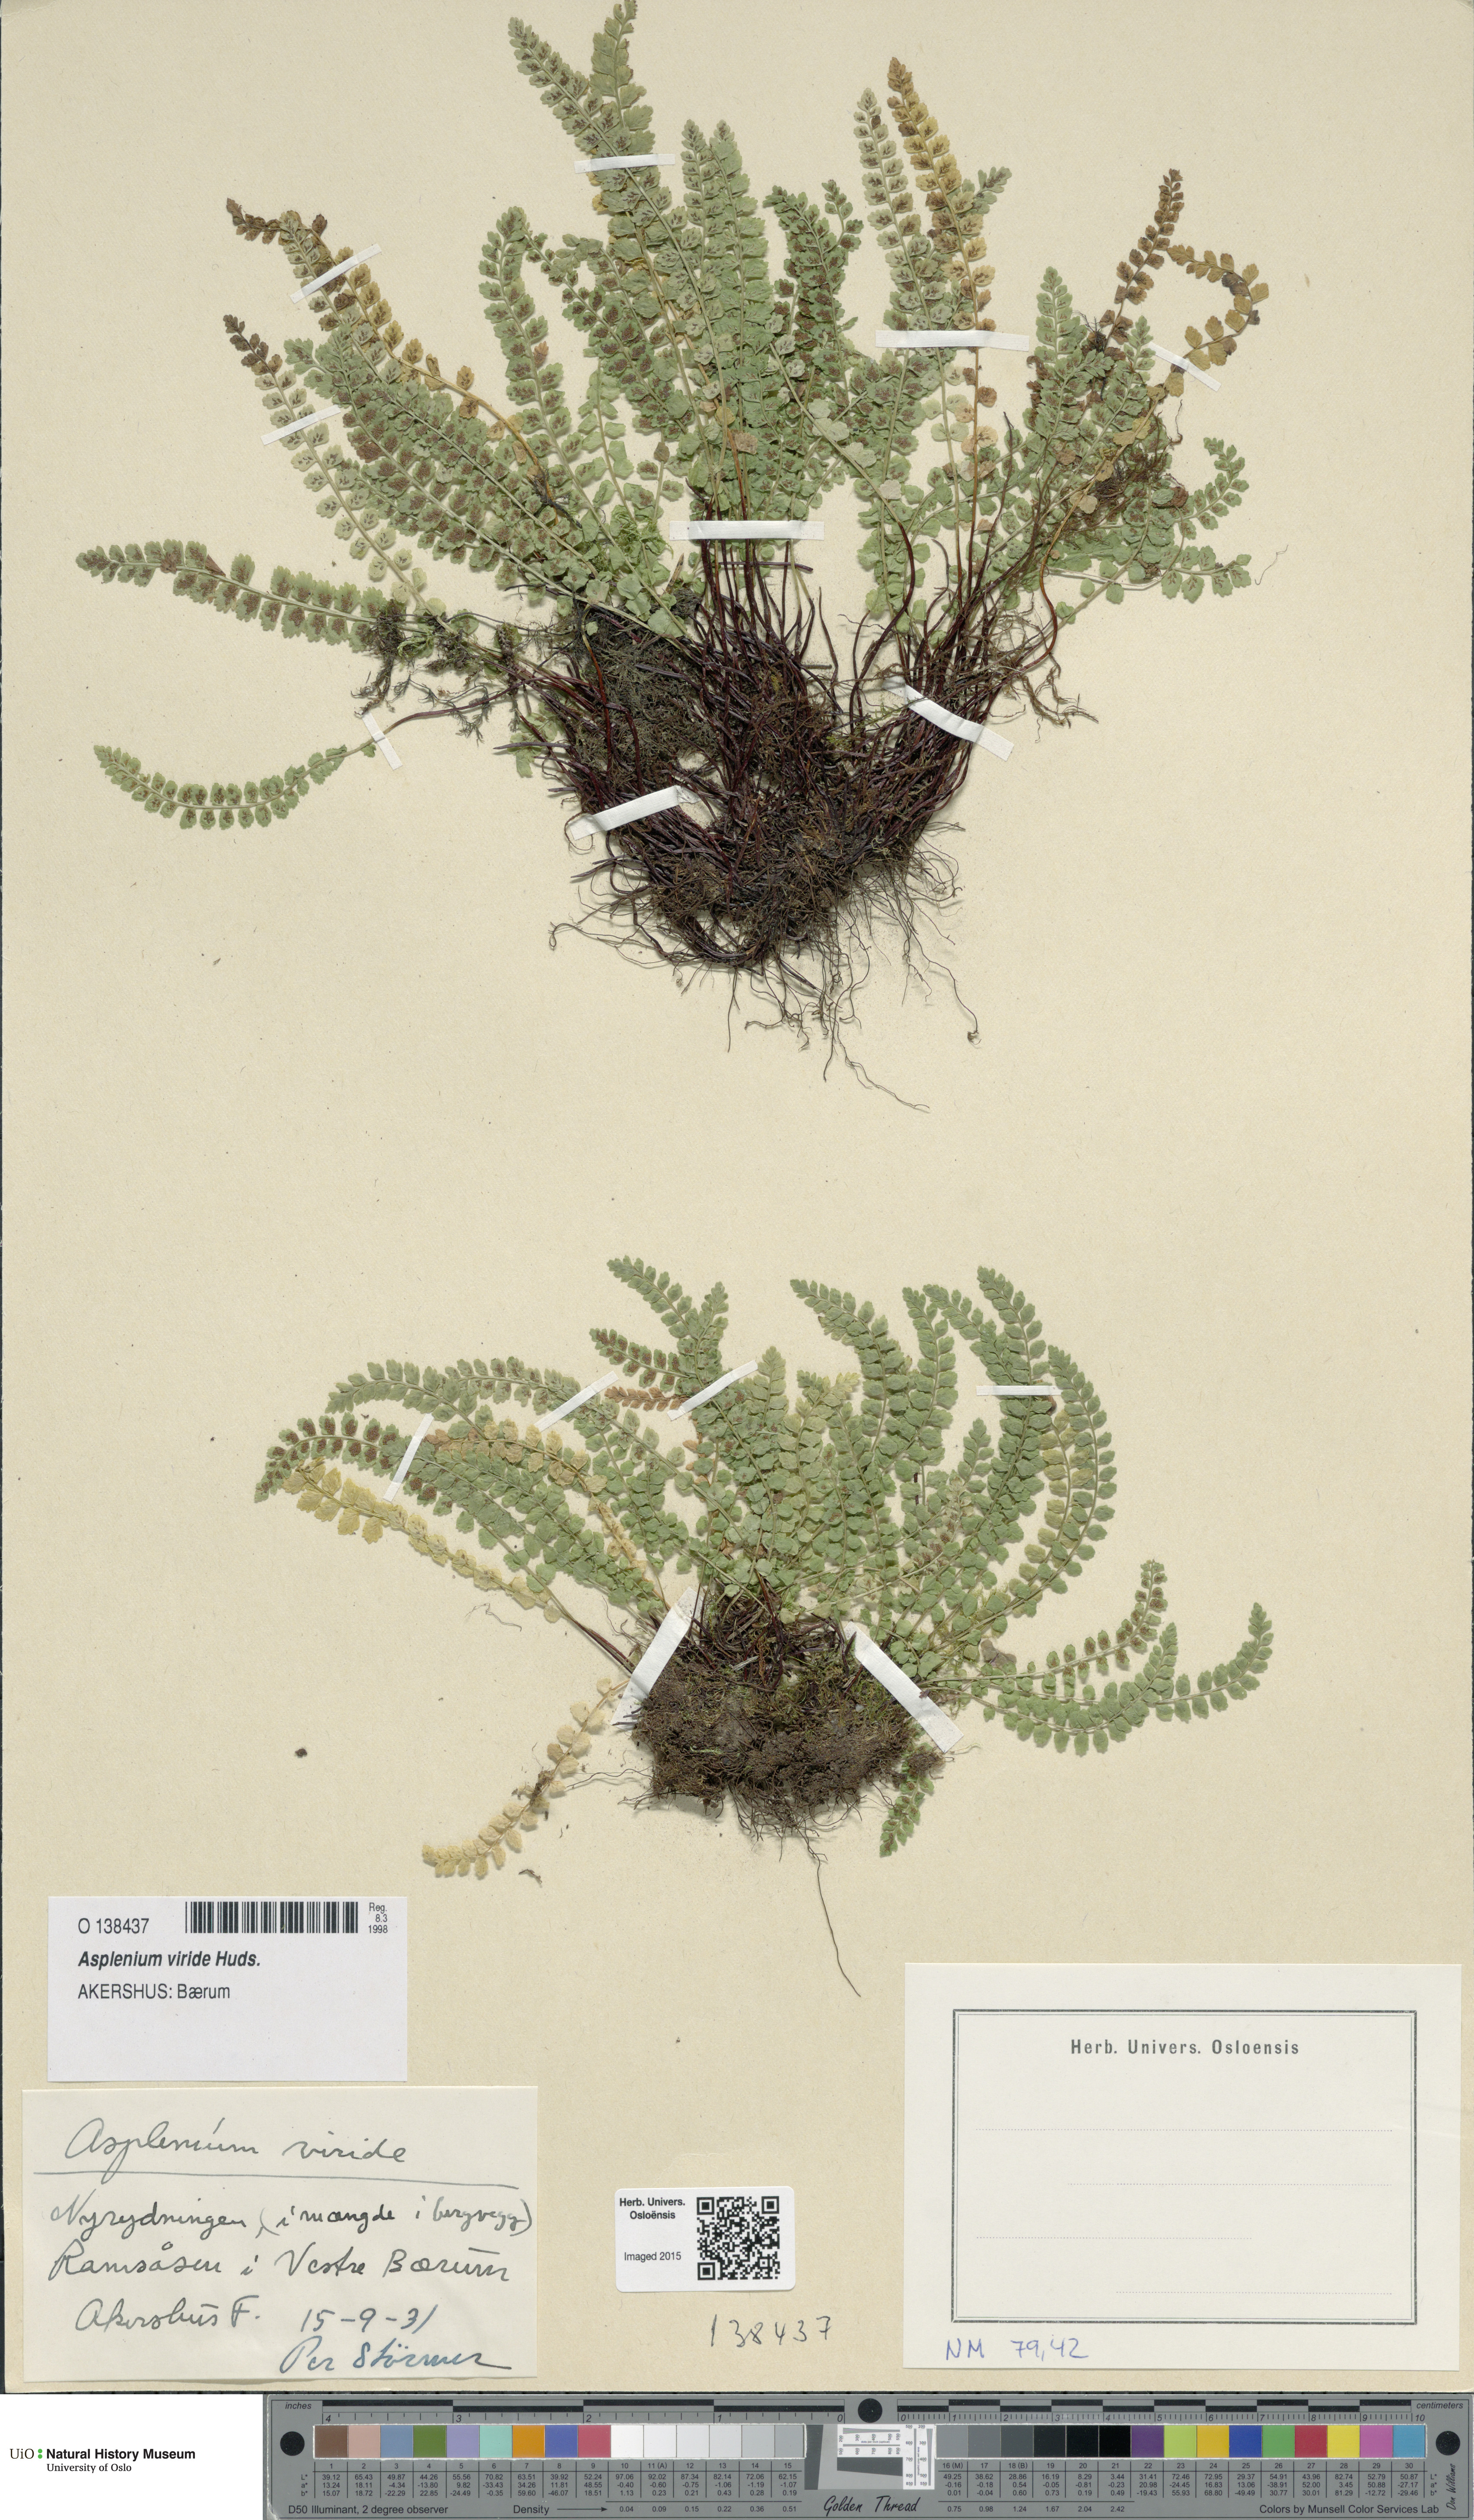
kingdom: Plantae
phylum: Tracheophyta
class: Polypodiopsida
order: Polypodiales
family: Aspleniaceae
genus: Asplenium
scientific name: Asplenium viride
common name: Green spleenwort
